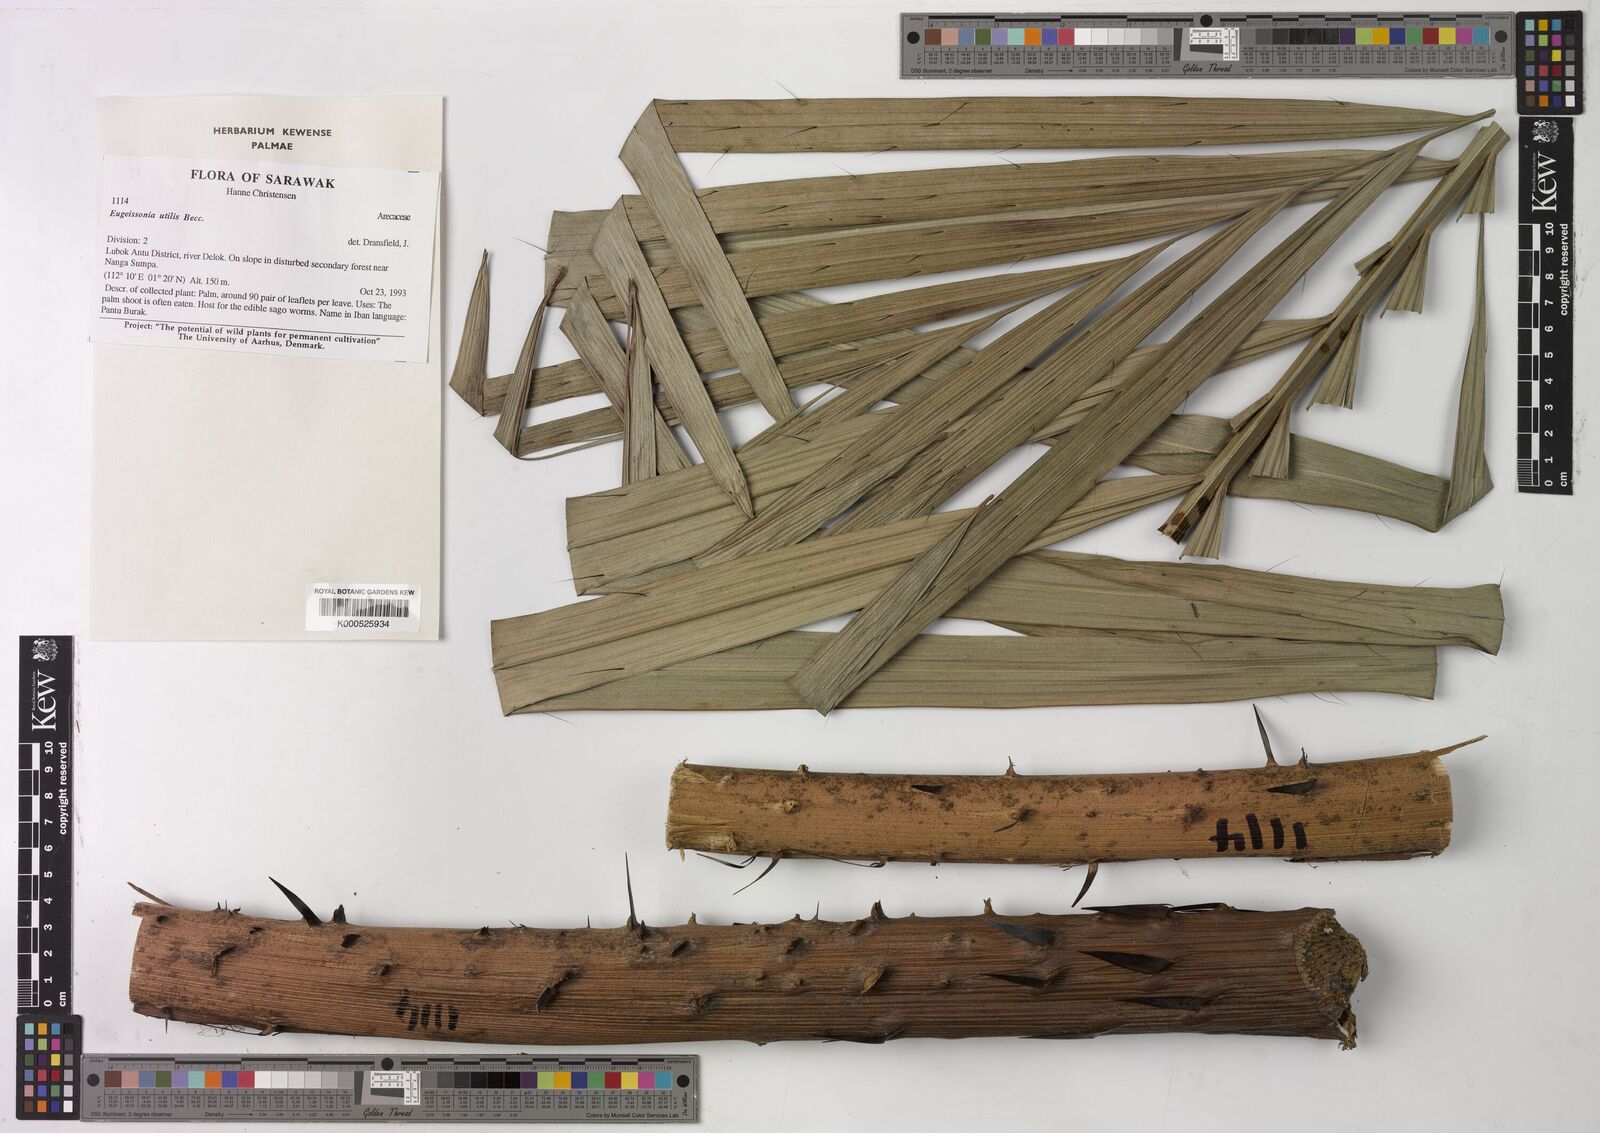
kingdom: Plantae
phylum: Tracheophyta
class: Liliopsida
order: Arecales
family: Arecaceae
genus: Eugeissona
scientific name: Eugeissona utilis
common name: Wild bornean sago palm
